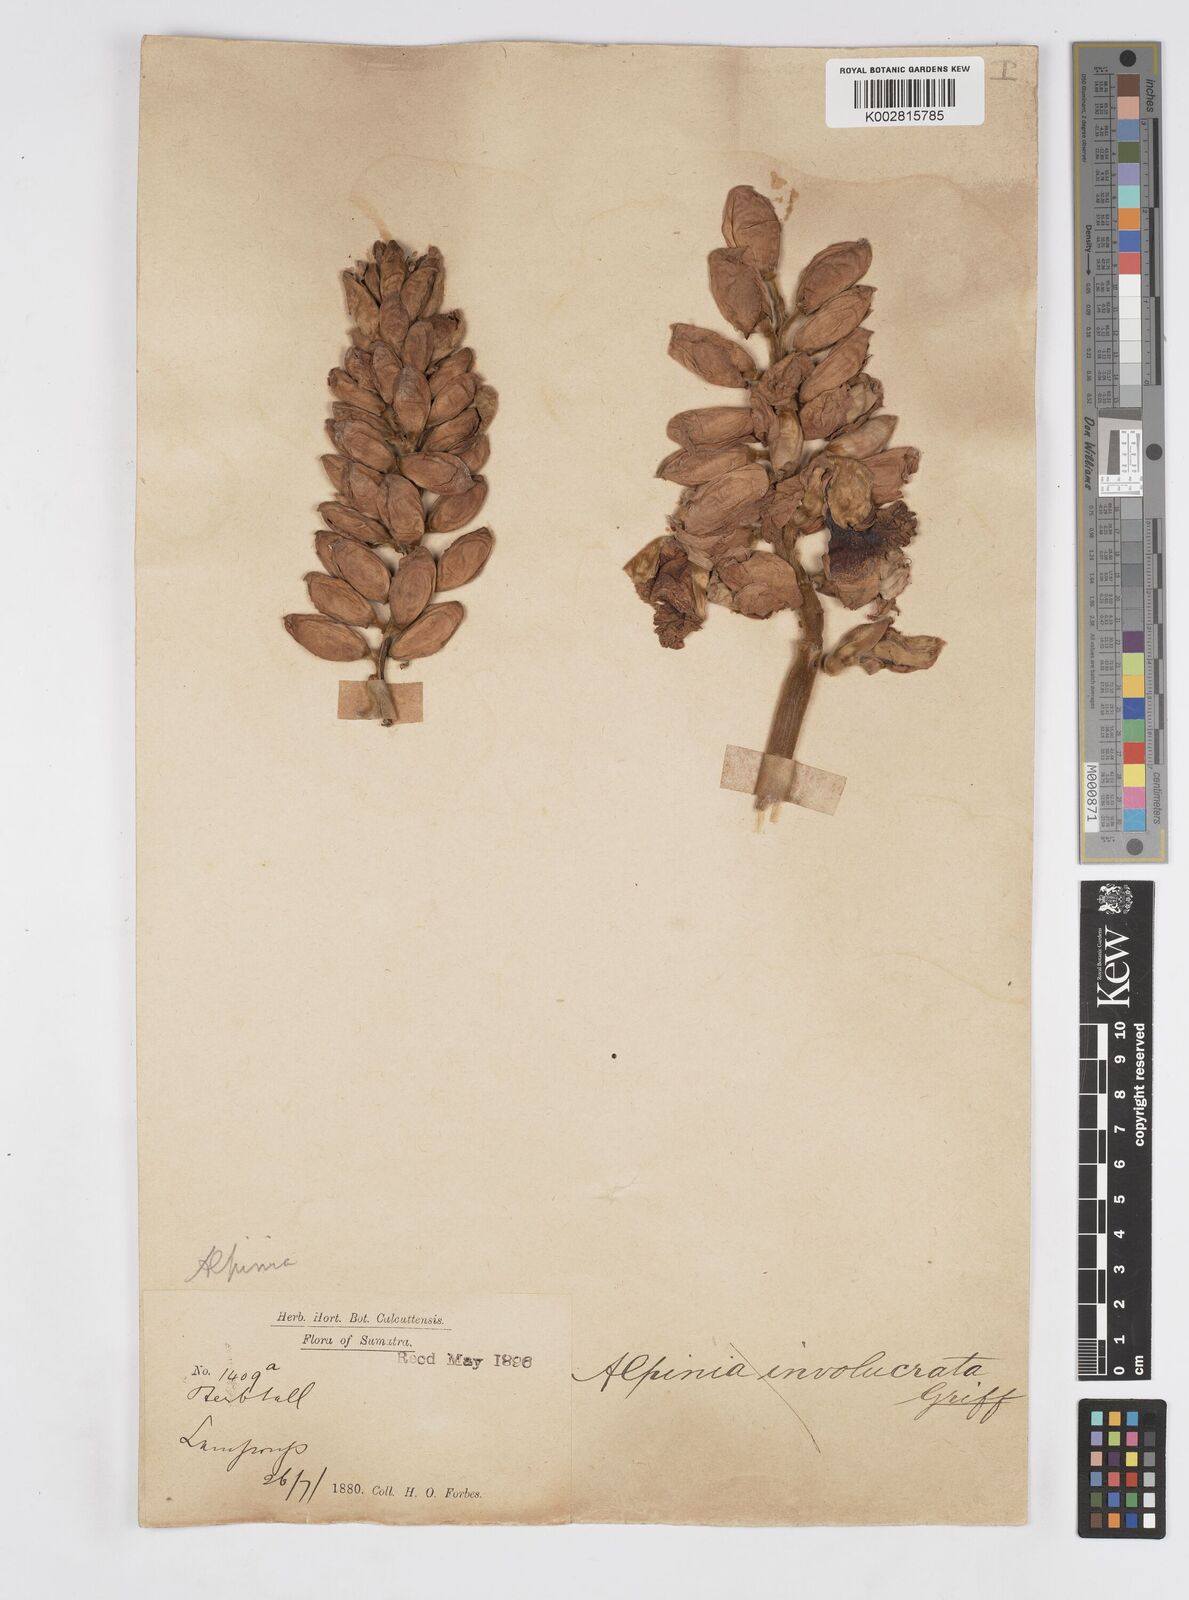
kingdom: Plantae
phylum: Tracheophyta
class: Liliopsida
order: Zingiberales
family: Zingiberaceae
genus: Alpinia
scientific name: Alpinia malaccensis
